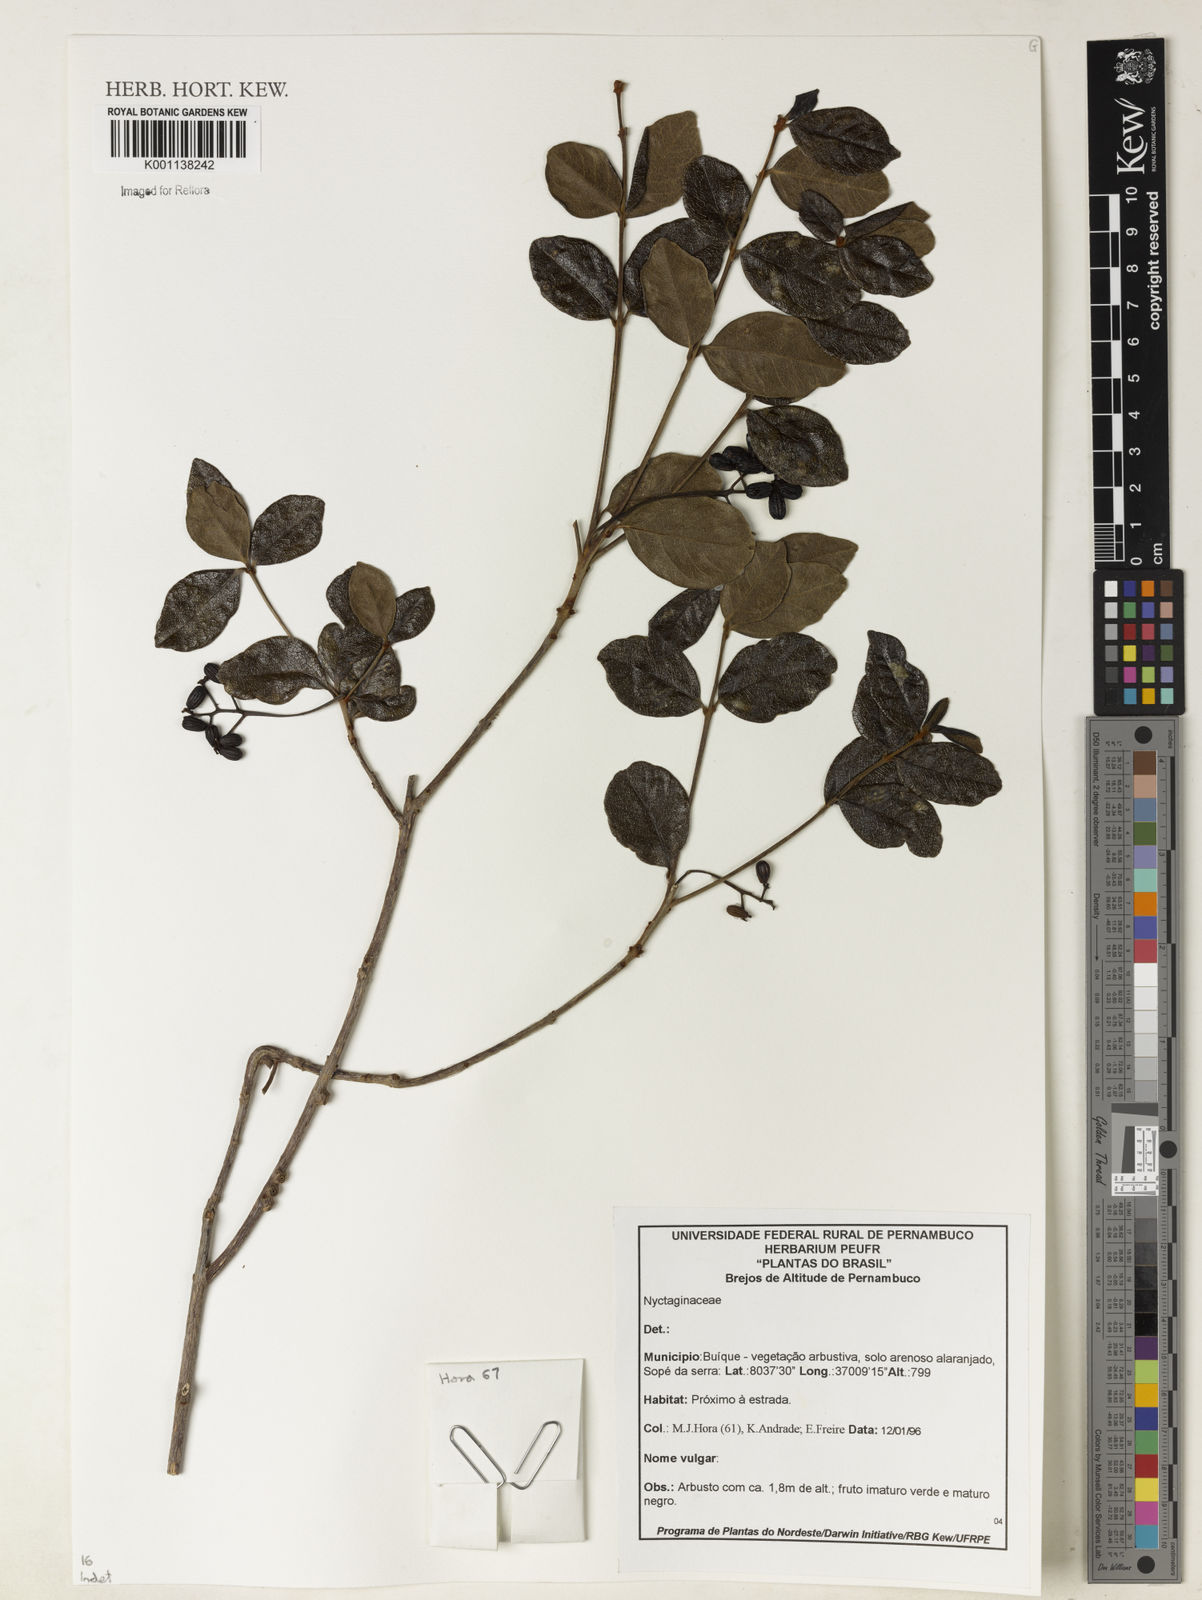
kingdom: Plantae
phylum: Tracheophyta
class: Magnoliopsida
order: Caryophyllales
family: Nyctaginaceae
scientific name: Nyctaginaceae
